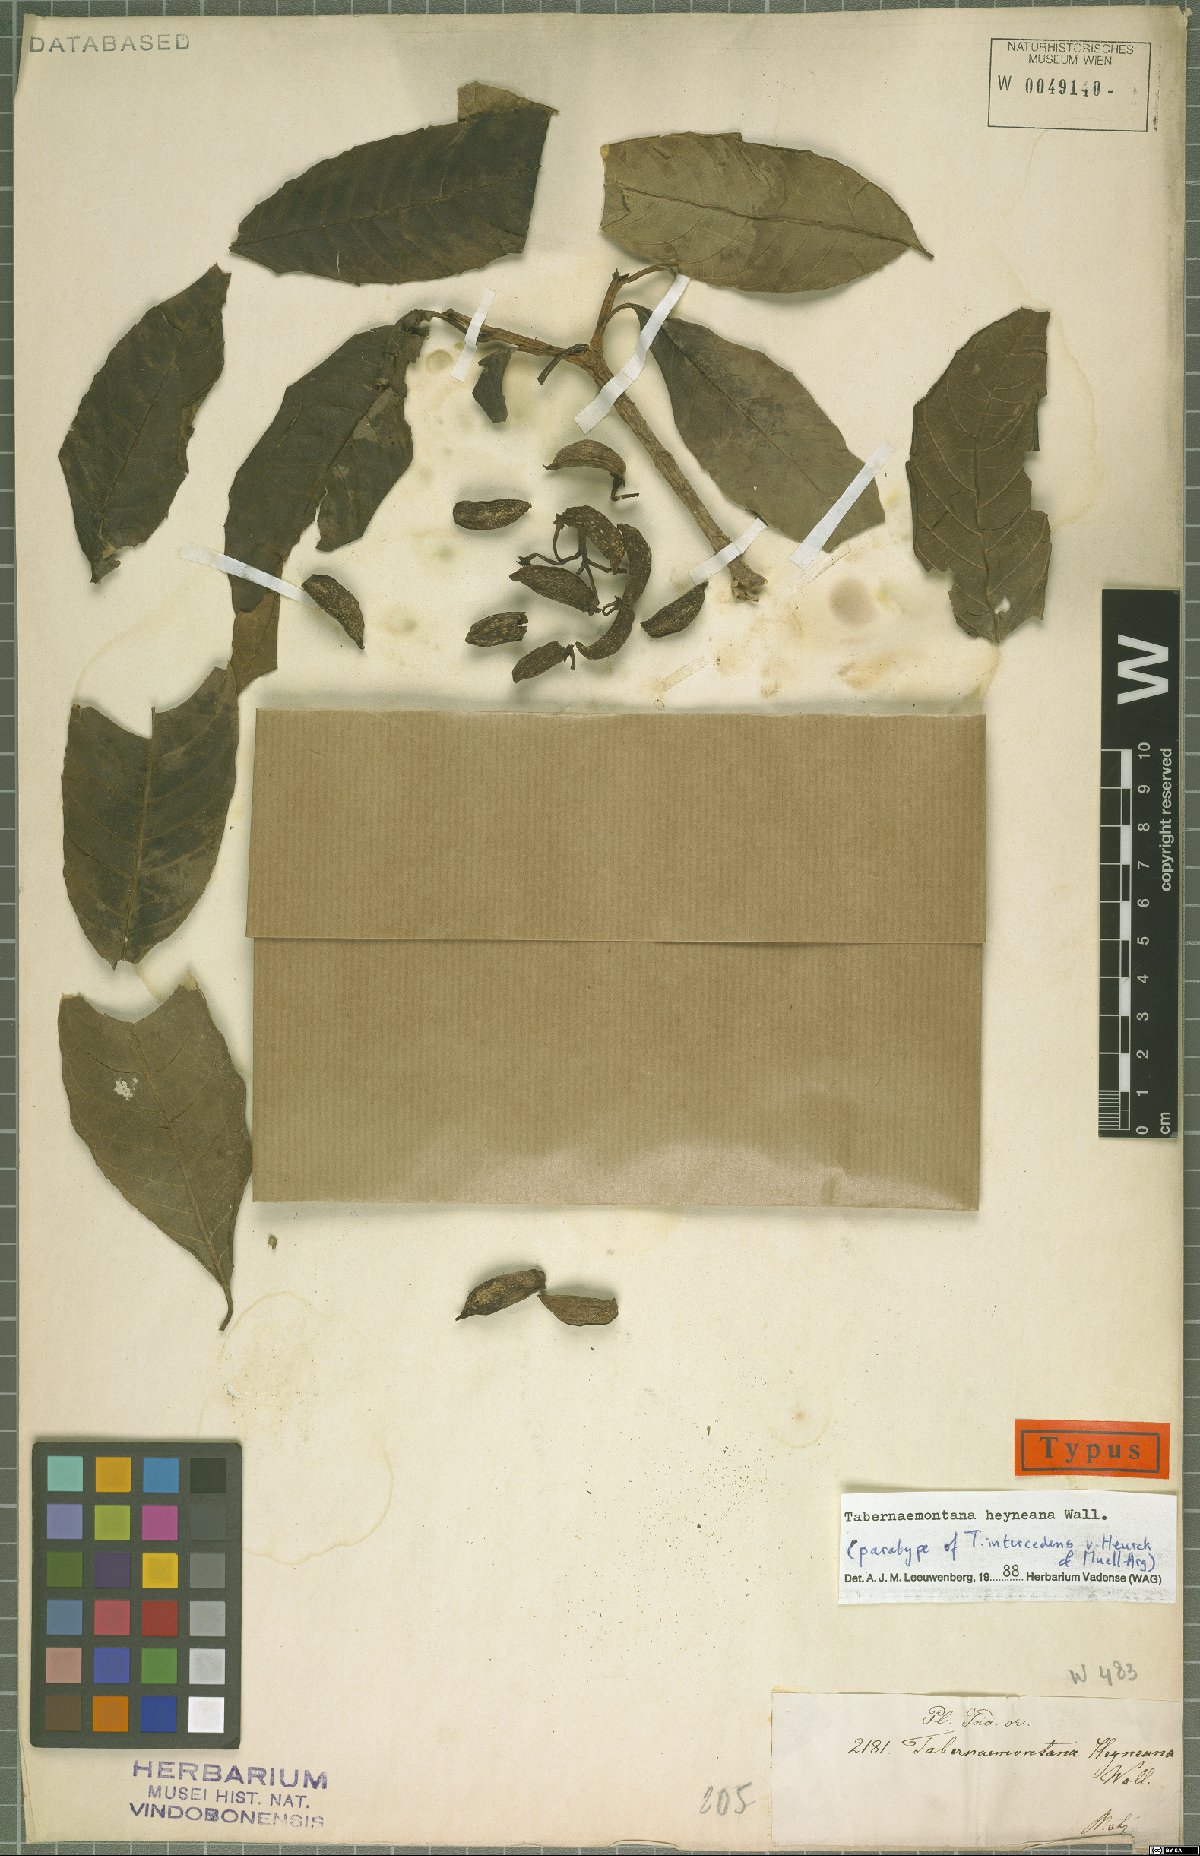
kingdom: Plantae
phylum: Tracheophyta
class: Magnoliopsida
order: Gentianales
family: Apocynaceae
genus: Tabernaemontana
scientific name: Tabernaemontana alternifolia
